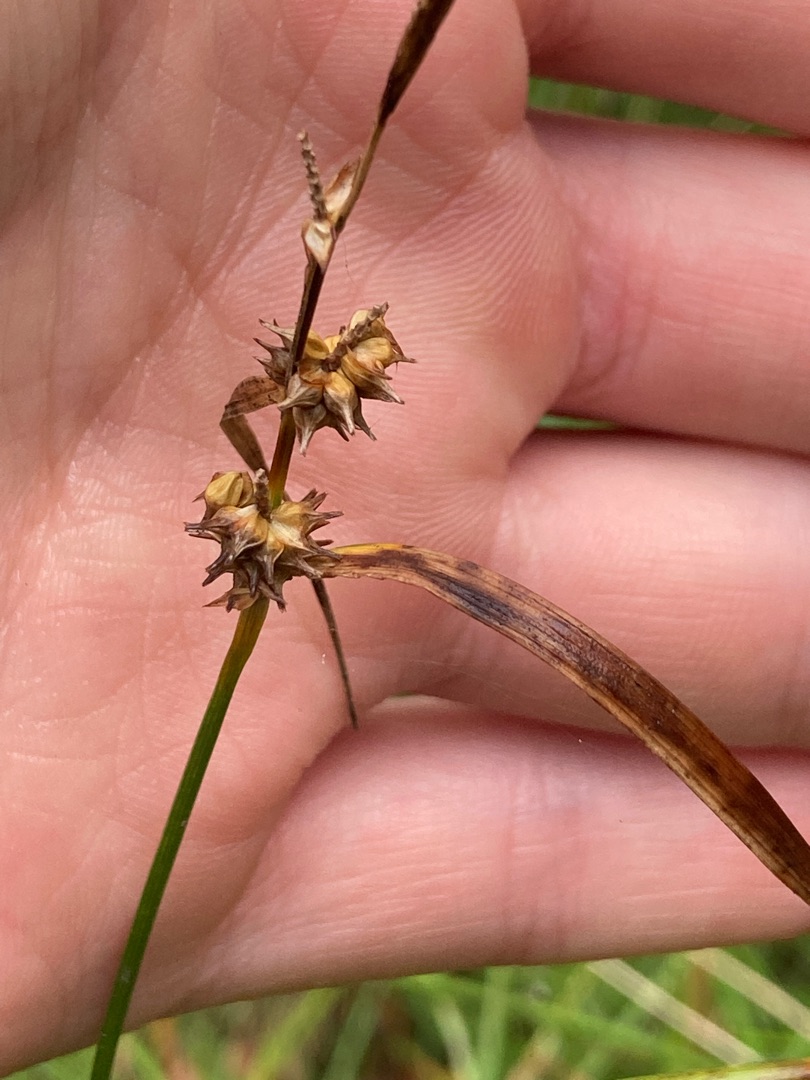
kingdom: Plantae
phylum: Tracheophyta
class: Liliopsida
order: Poales
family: Cyperaceae
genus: Carex
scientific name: Carex lepidocarpa
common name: Krognæb-star
